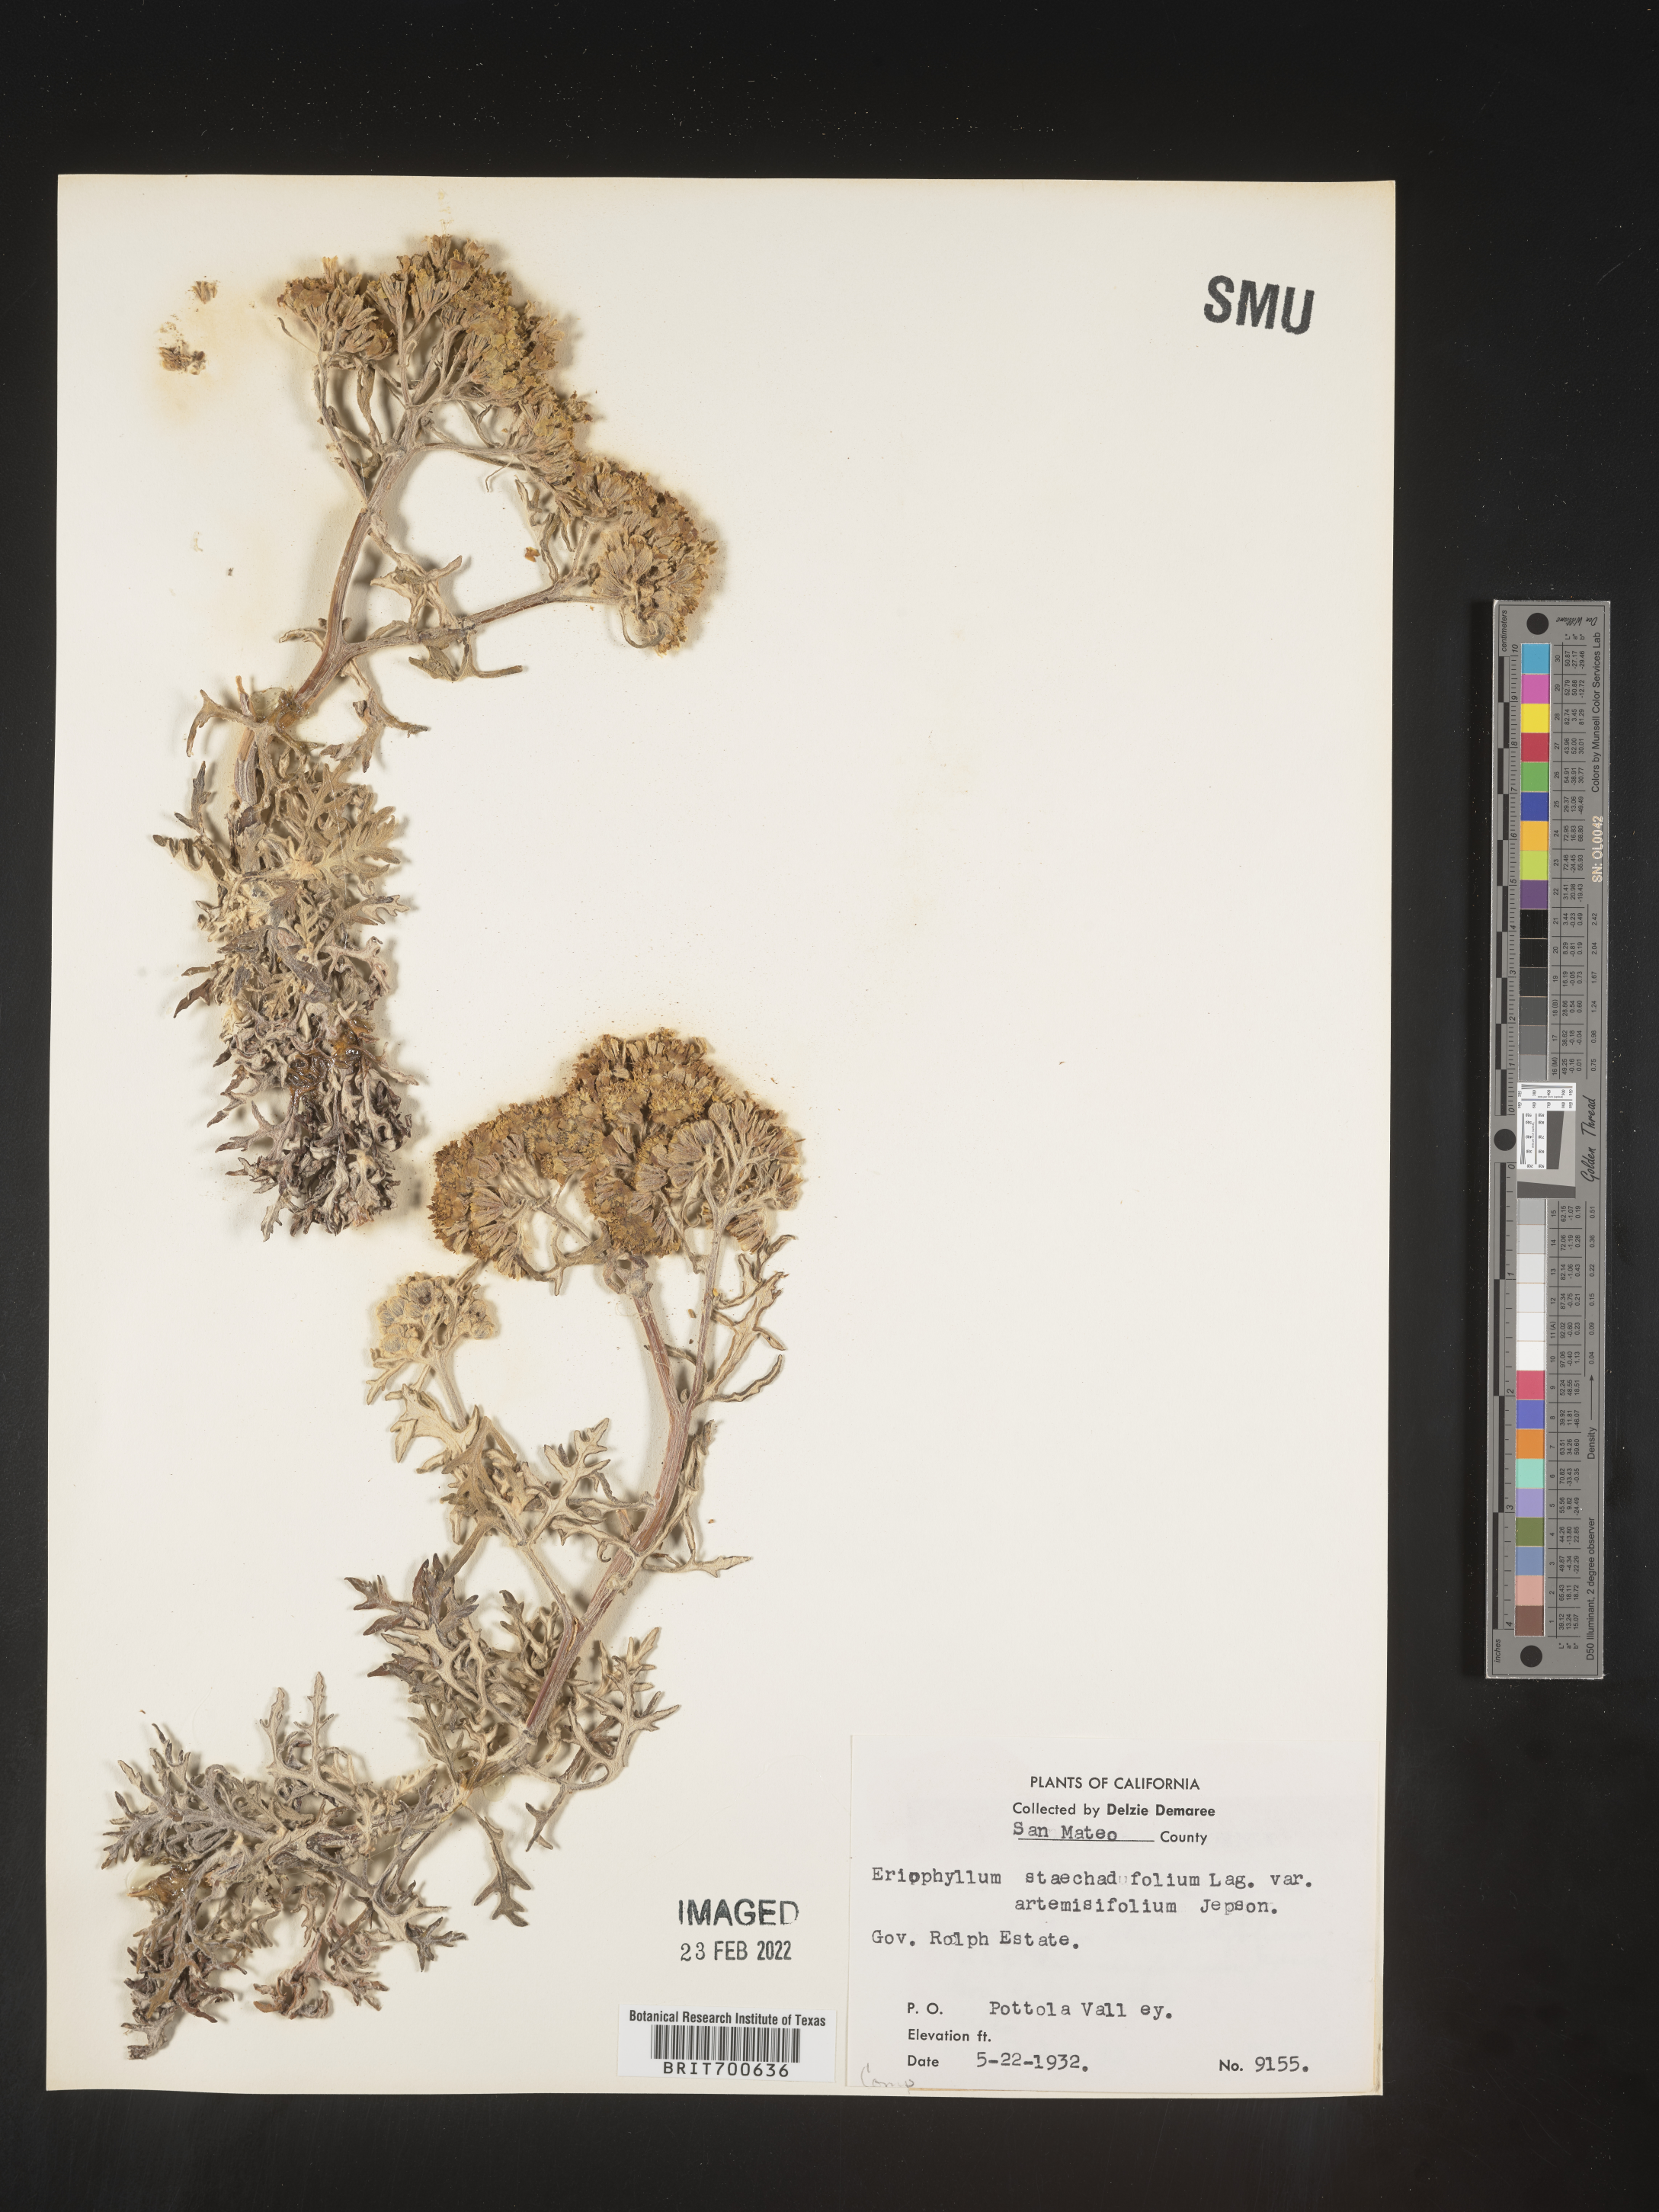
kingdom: Plantae
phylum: Tracheophyta
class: Magnoliopsida
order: Asterales
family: Asteraceae
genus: Eriophyllum
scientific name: Eriophyllum staechadifolium
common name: Lizardtail
